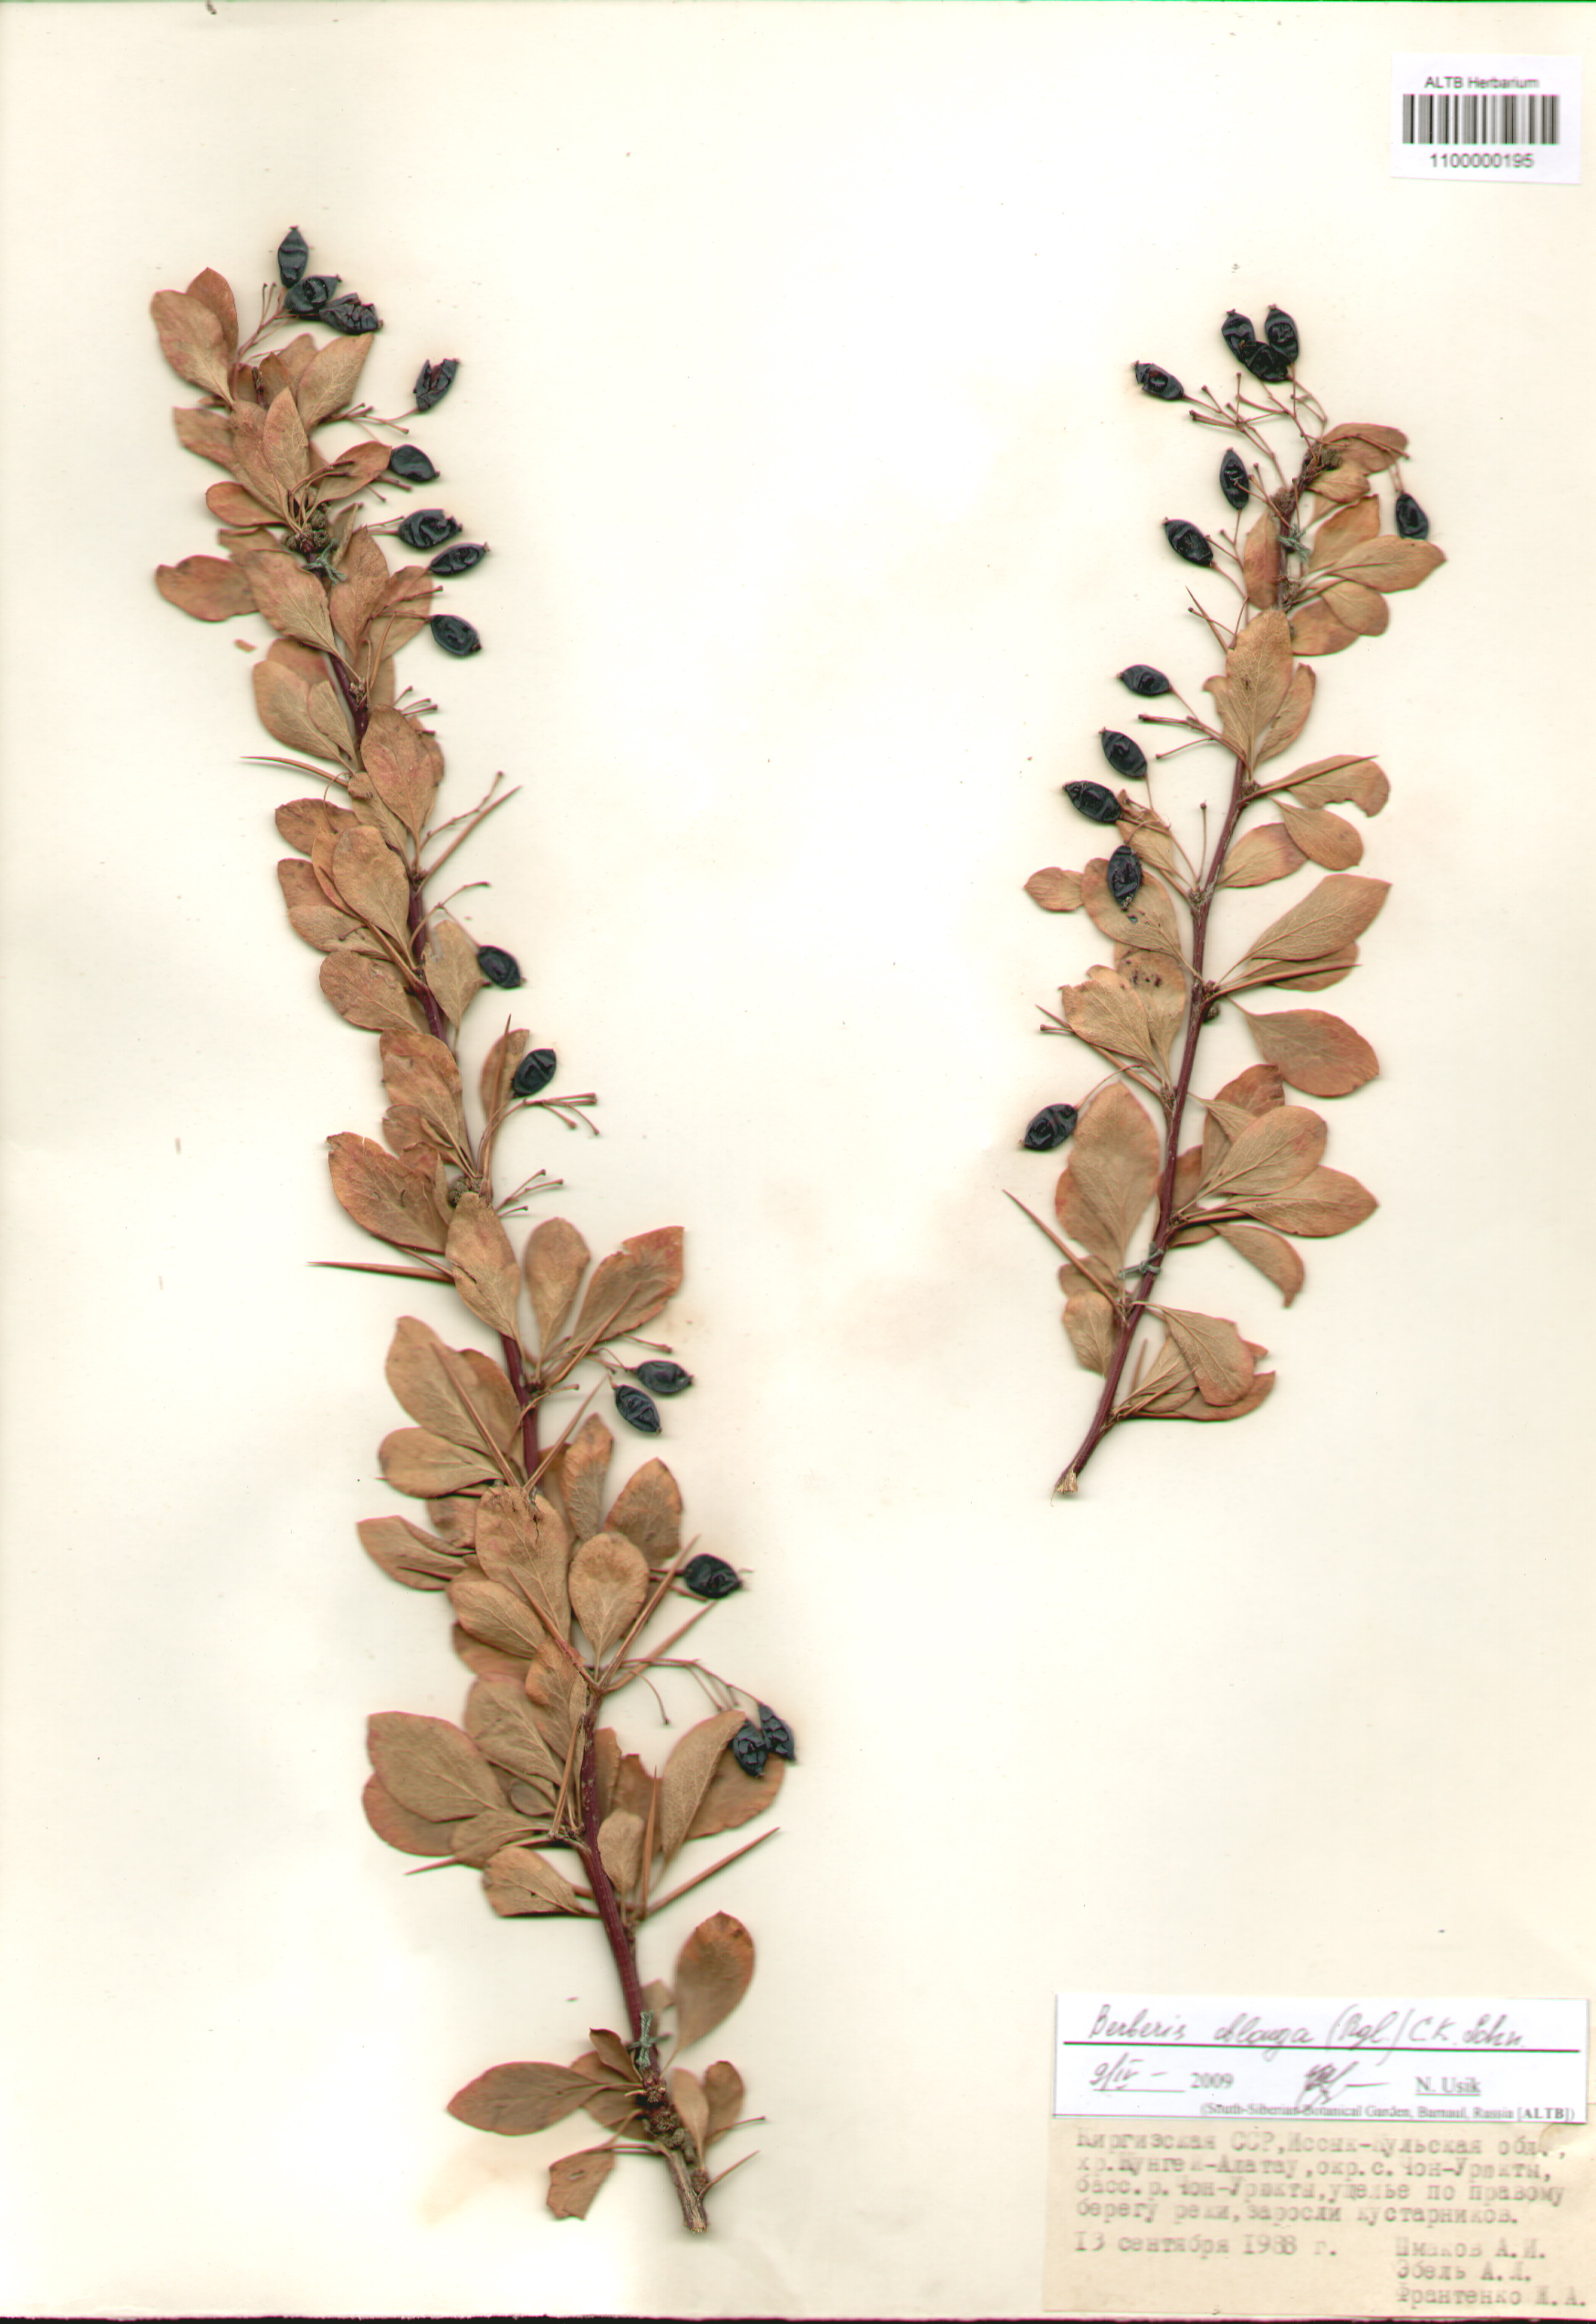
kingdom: Plantae
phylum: Tracheophyta
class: Magnoliopsida
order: Ranunculales
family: Berberidaceae
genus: Berberis
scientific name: Berberis oblonga
